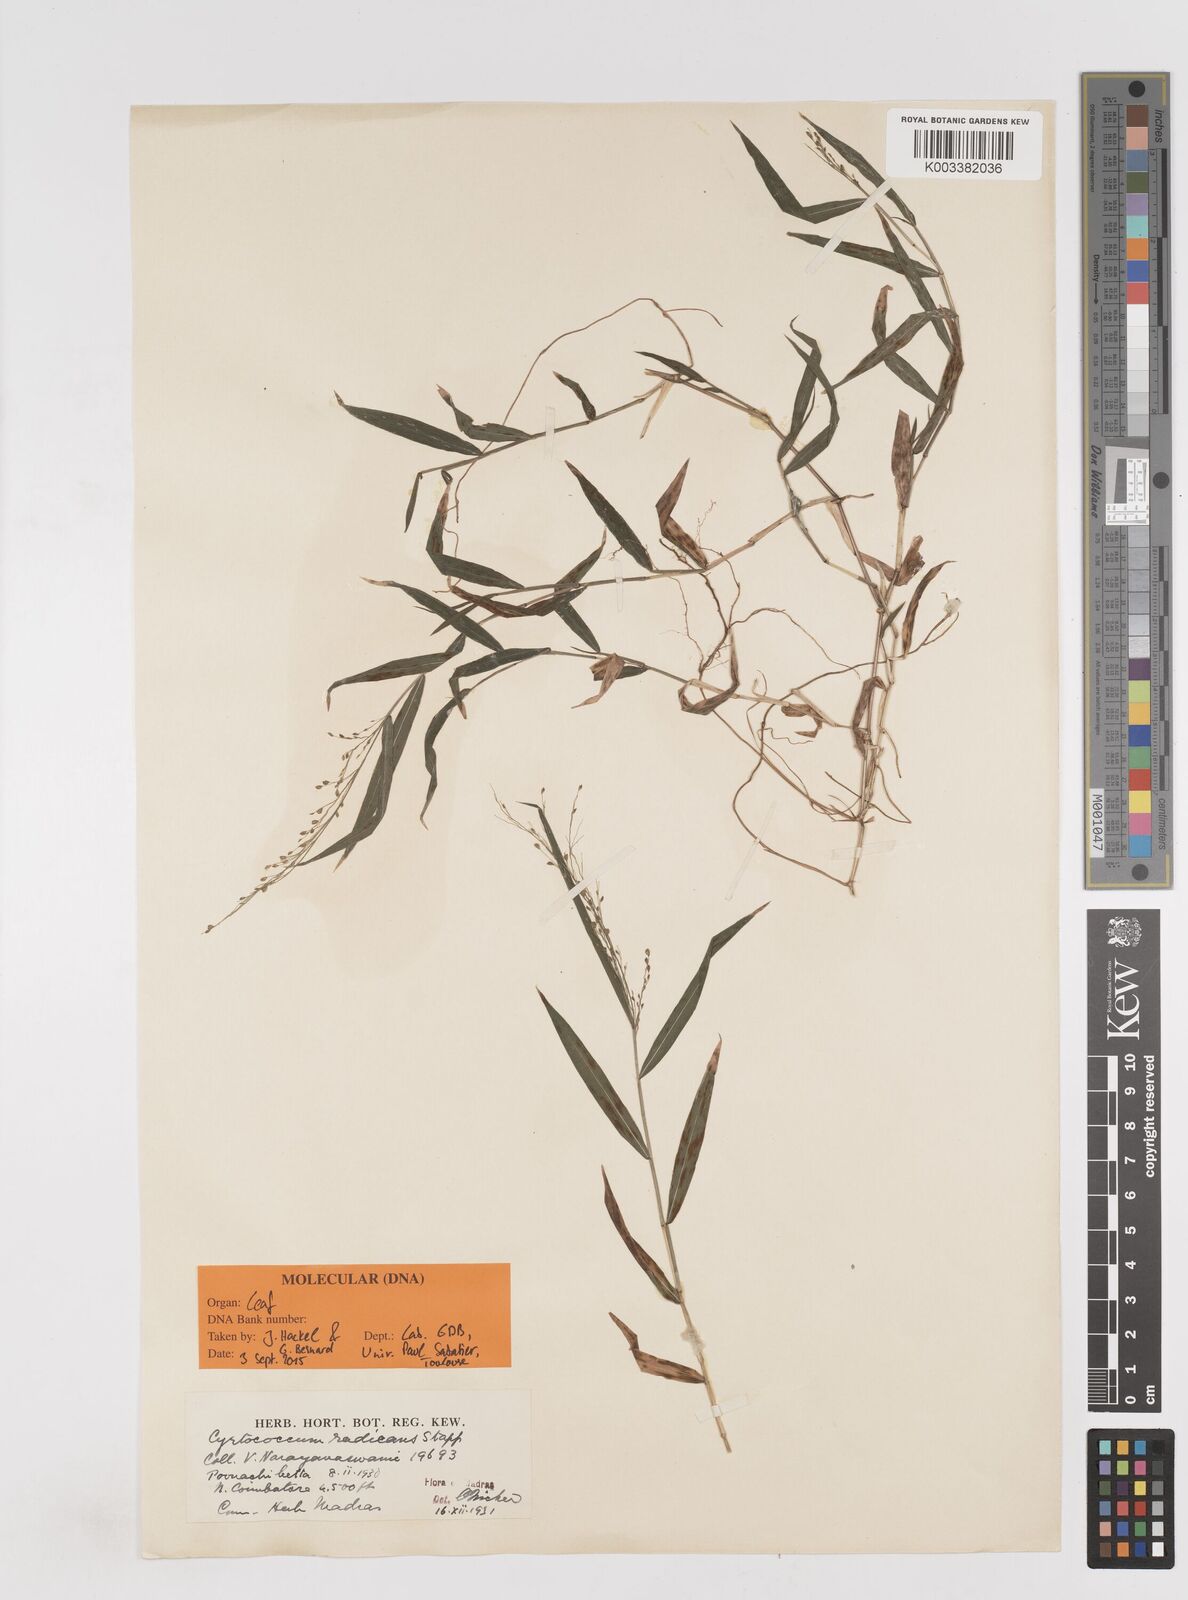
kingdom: Plantae
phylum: Tracheophyta
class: Liliopsida
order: Poales
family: Poaceae
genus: Cyrtococcum
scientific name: Cyrtococcum deccanense
